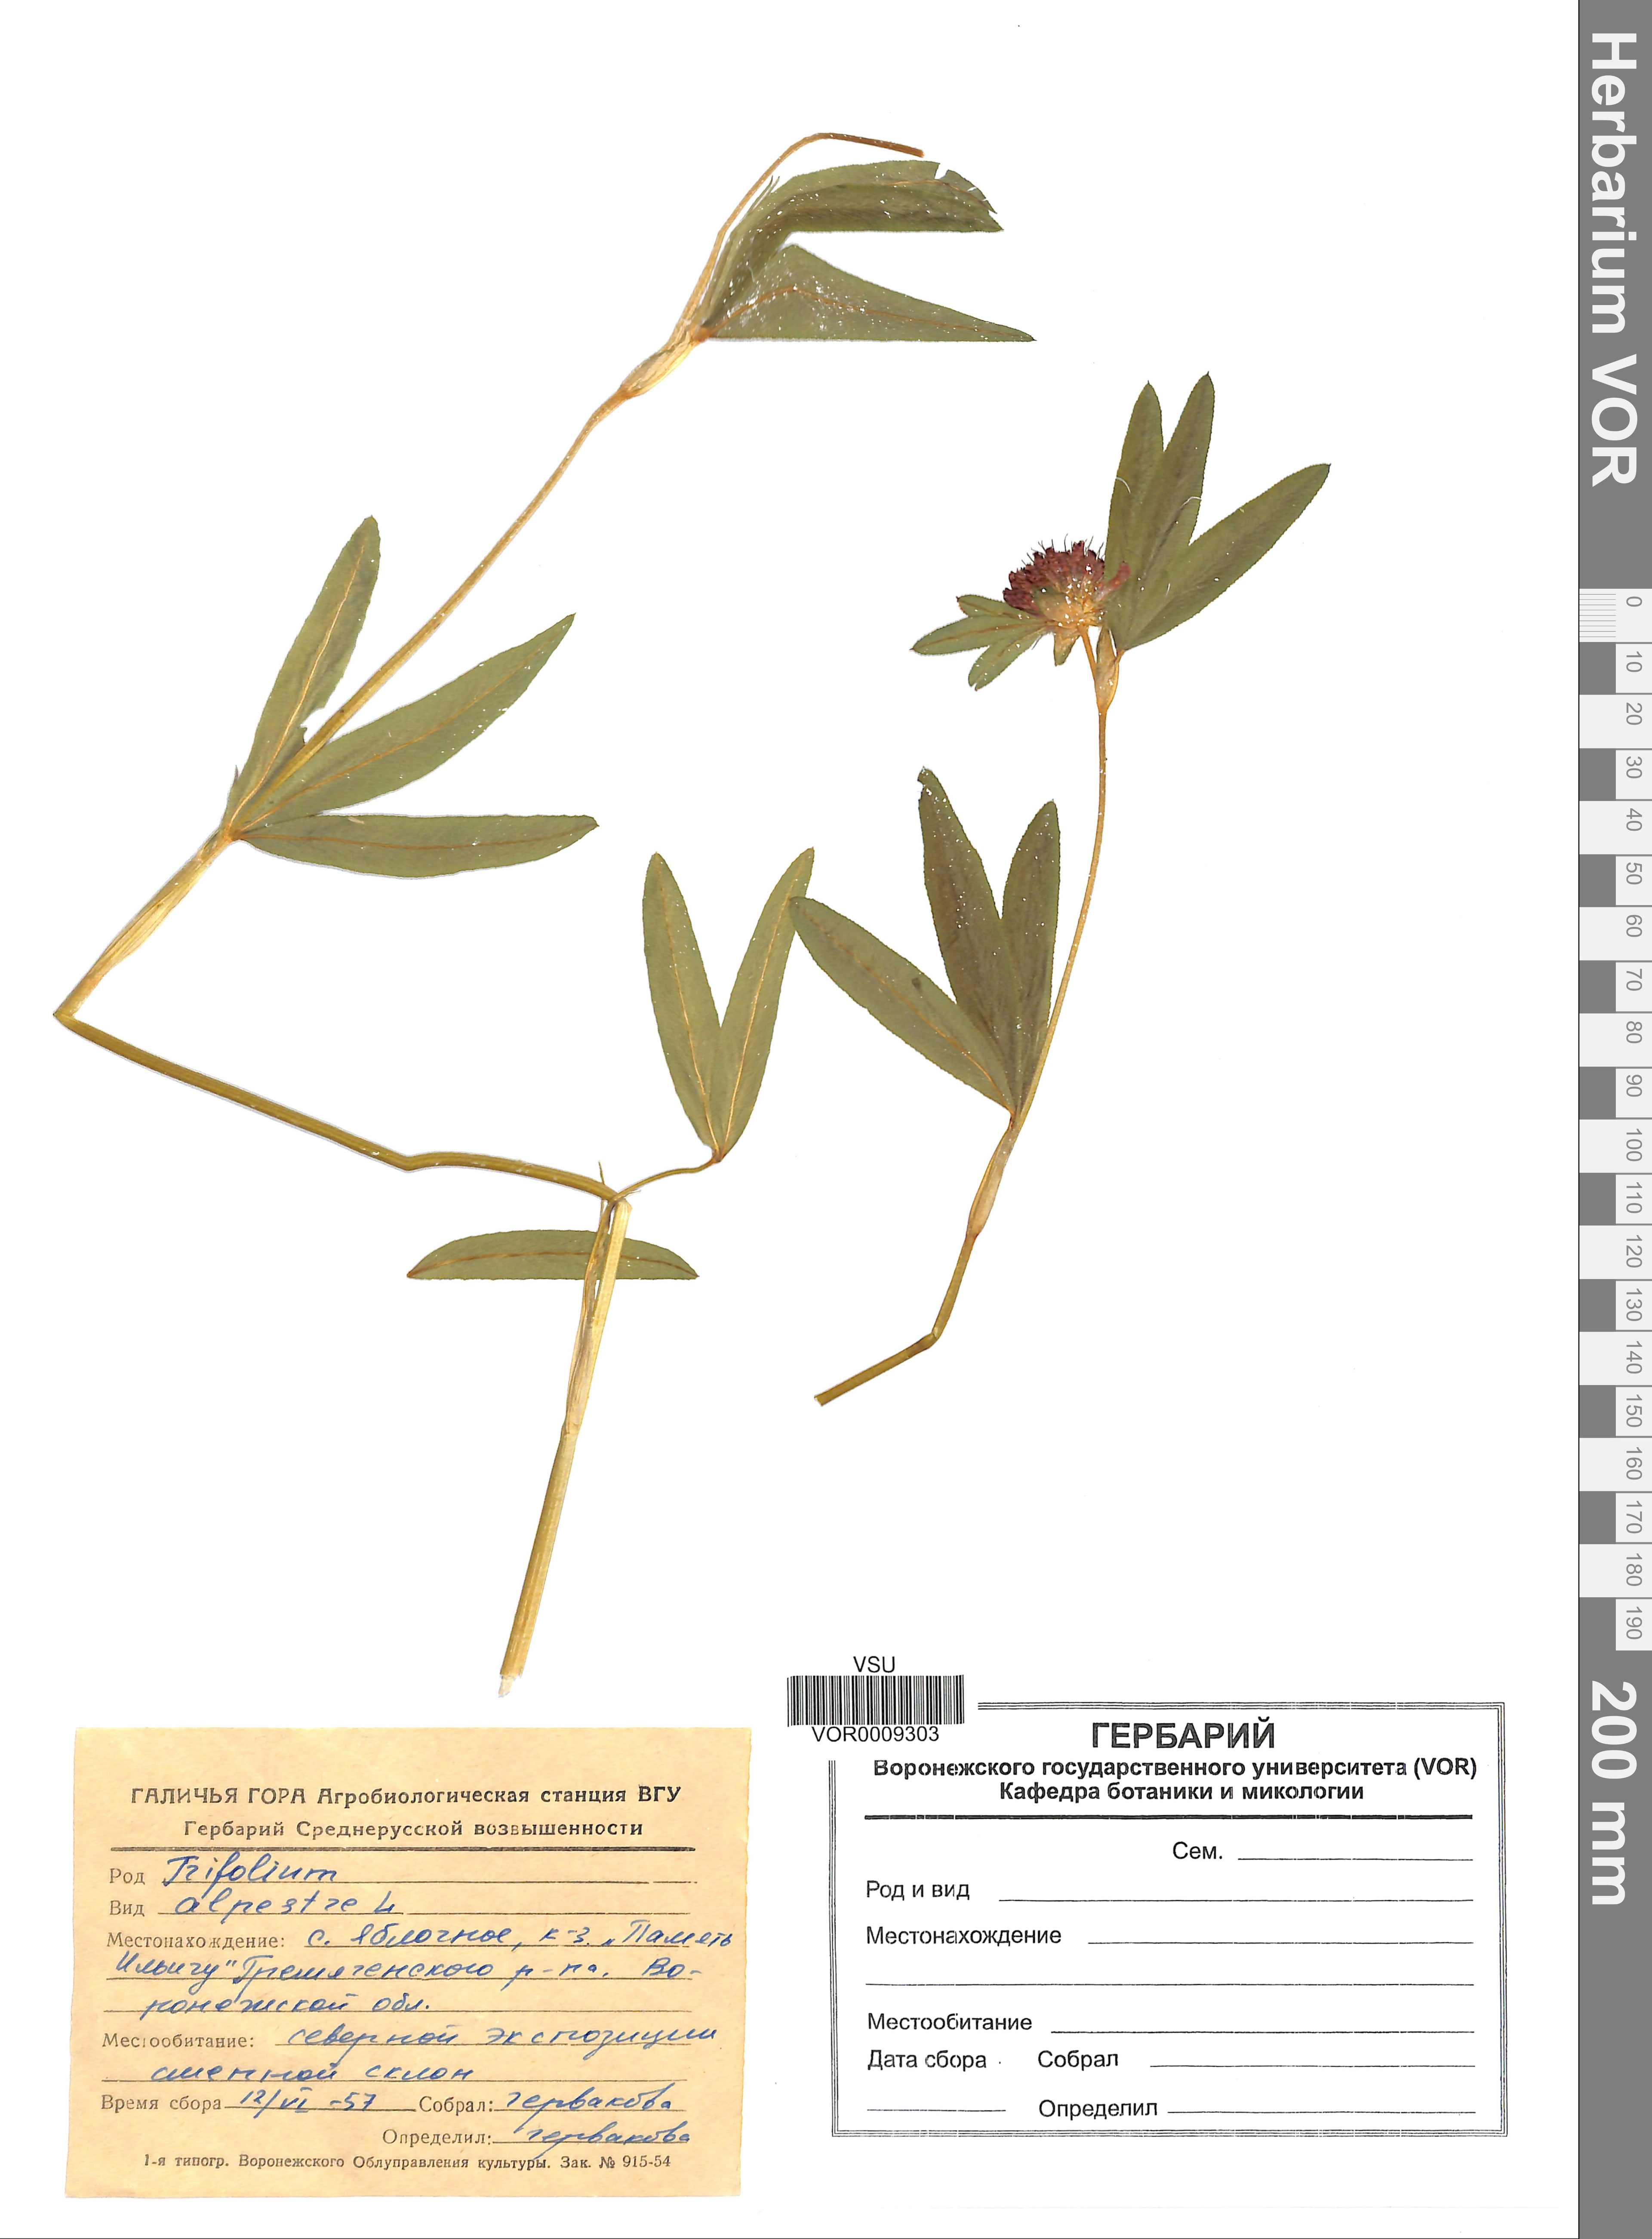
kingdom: Plantae
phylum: Tracheophyta
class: Magnoliopsida
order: Fabales
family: Fabaceae
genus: Trifolium
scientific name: Trifolium alpestre
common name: Owl-head clover
